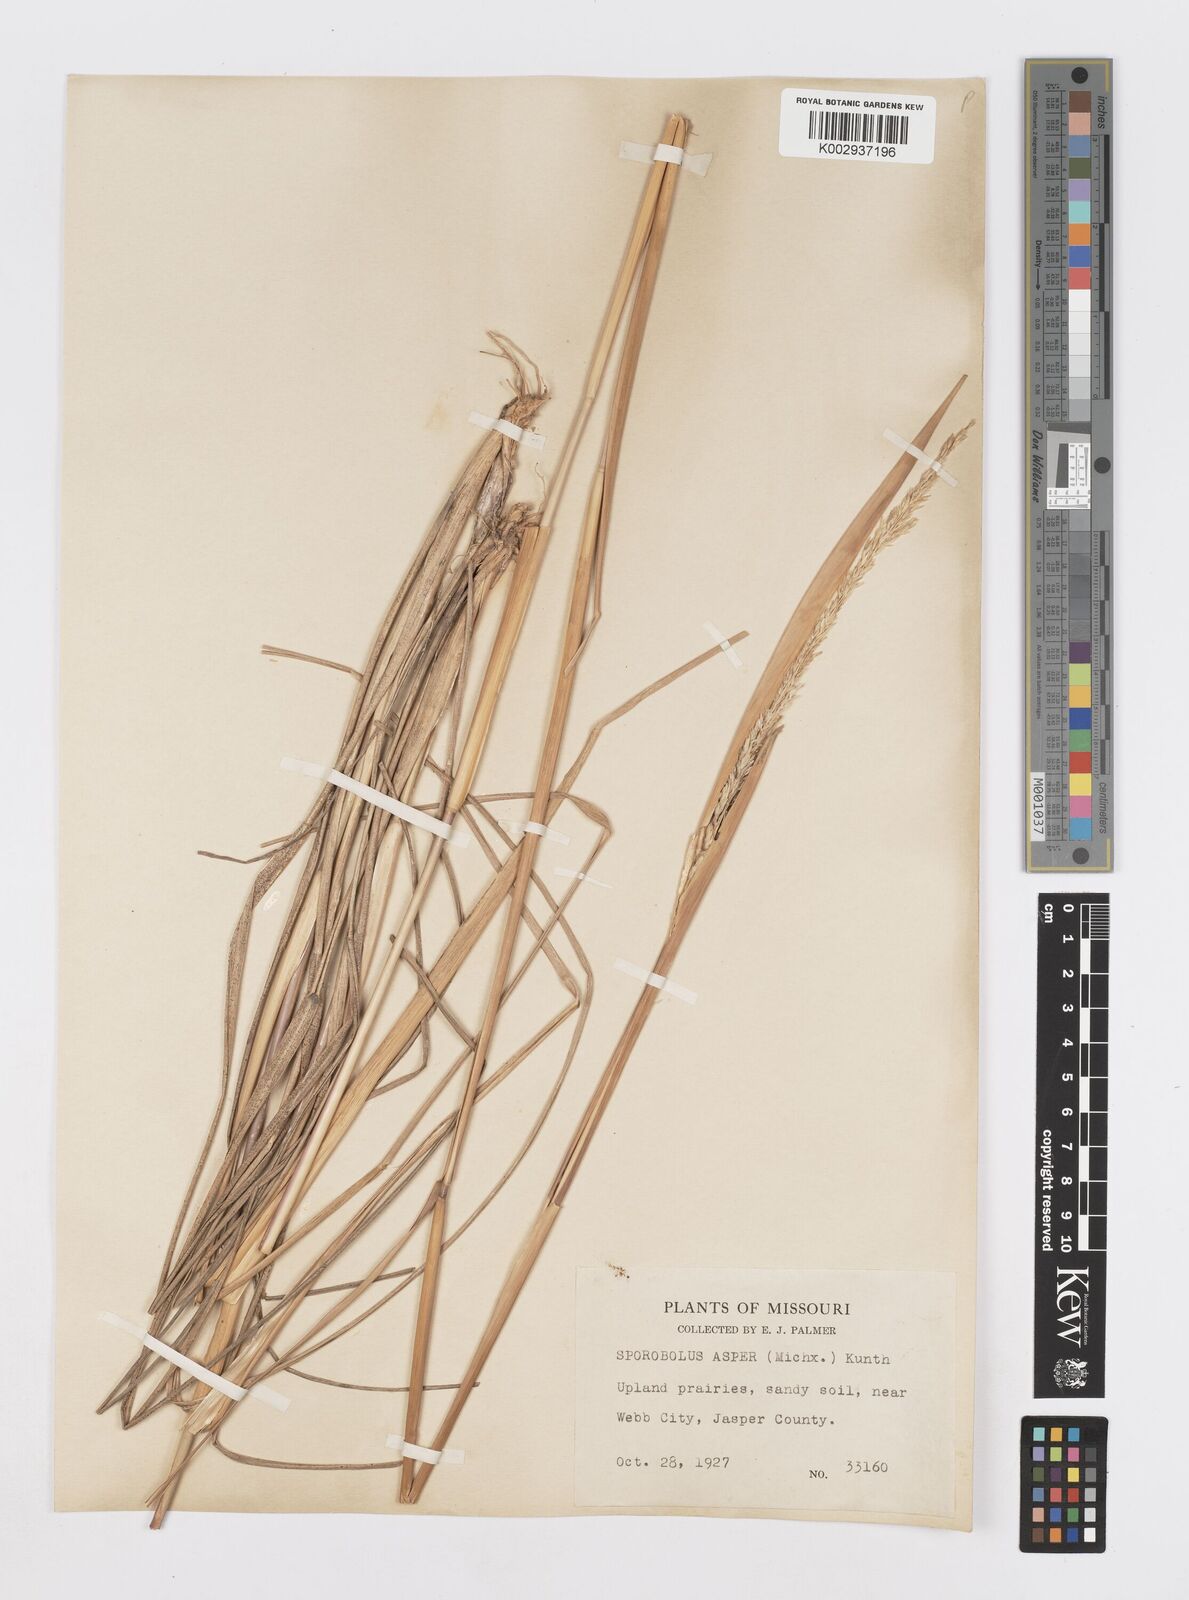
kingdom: Plantae
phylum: Tracheophyta
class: Liliopsida
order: Poales
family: Poaceae
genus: Sporobolus
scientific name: Sporobolus compositus
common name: Rough dropseed
